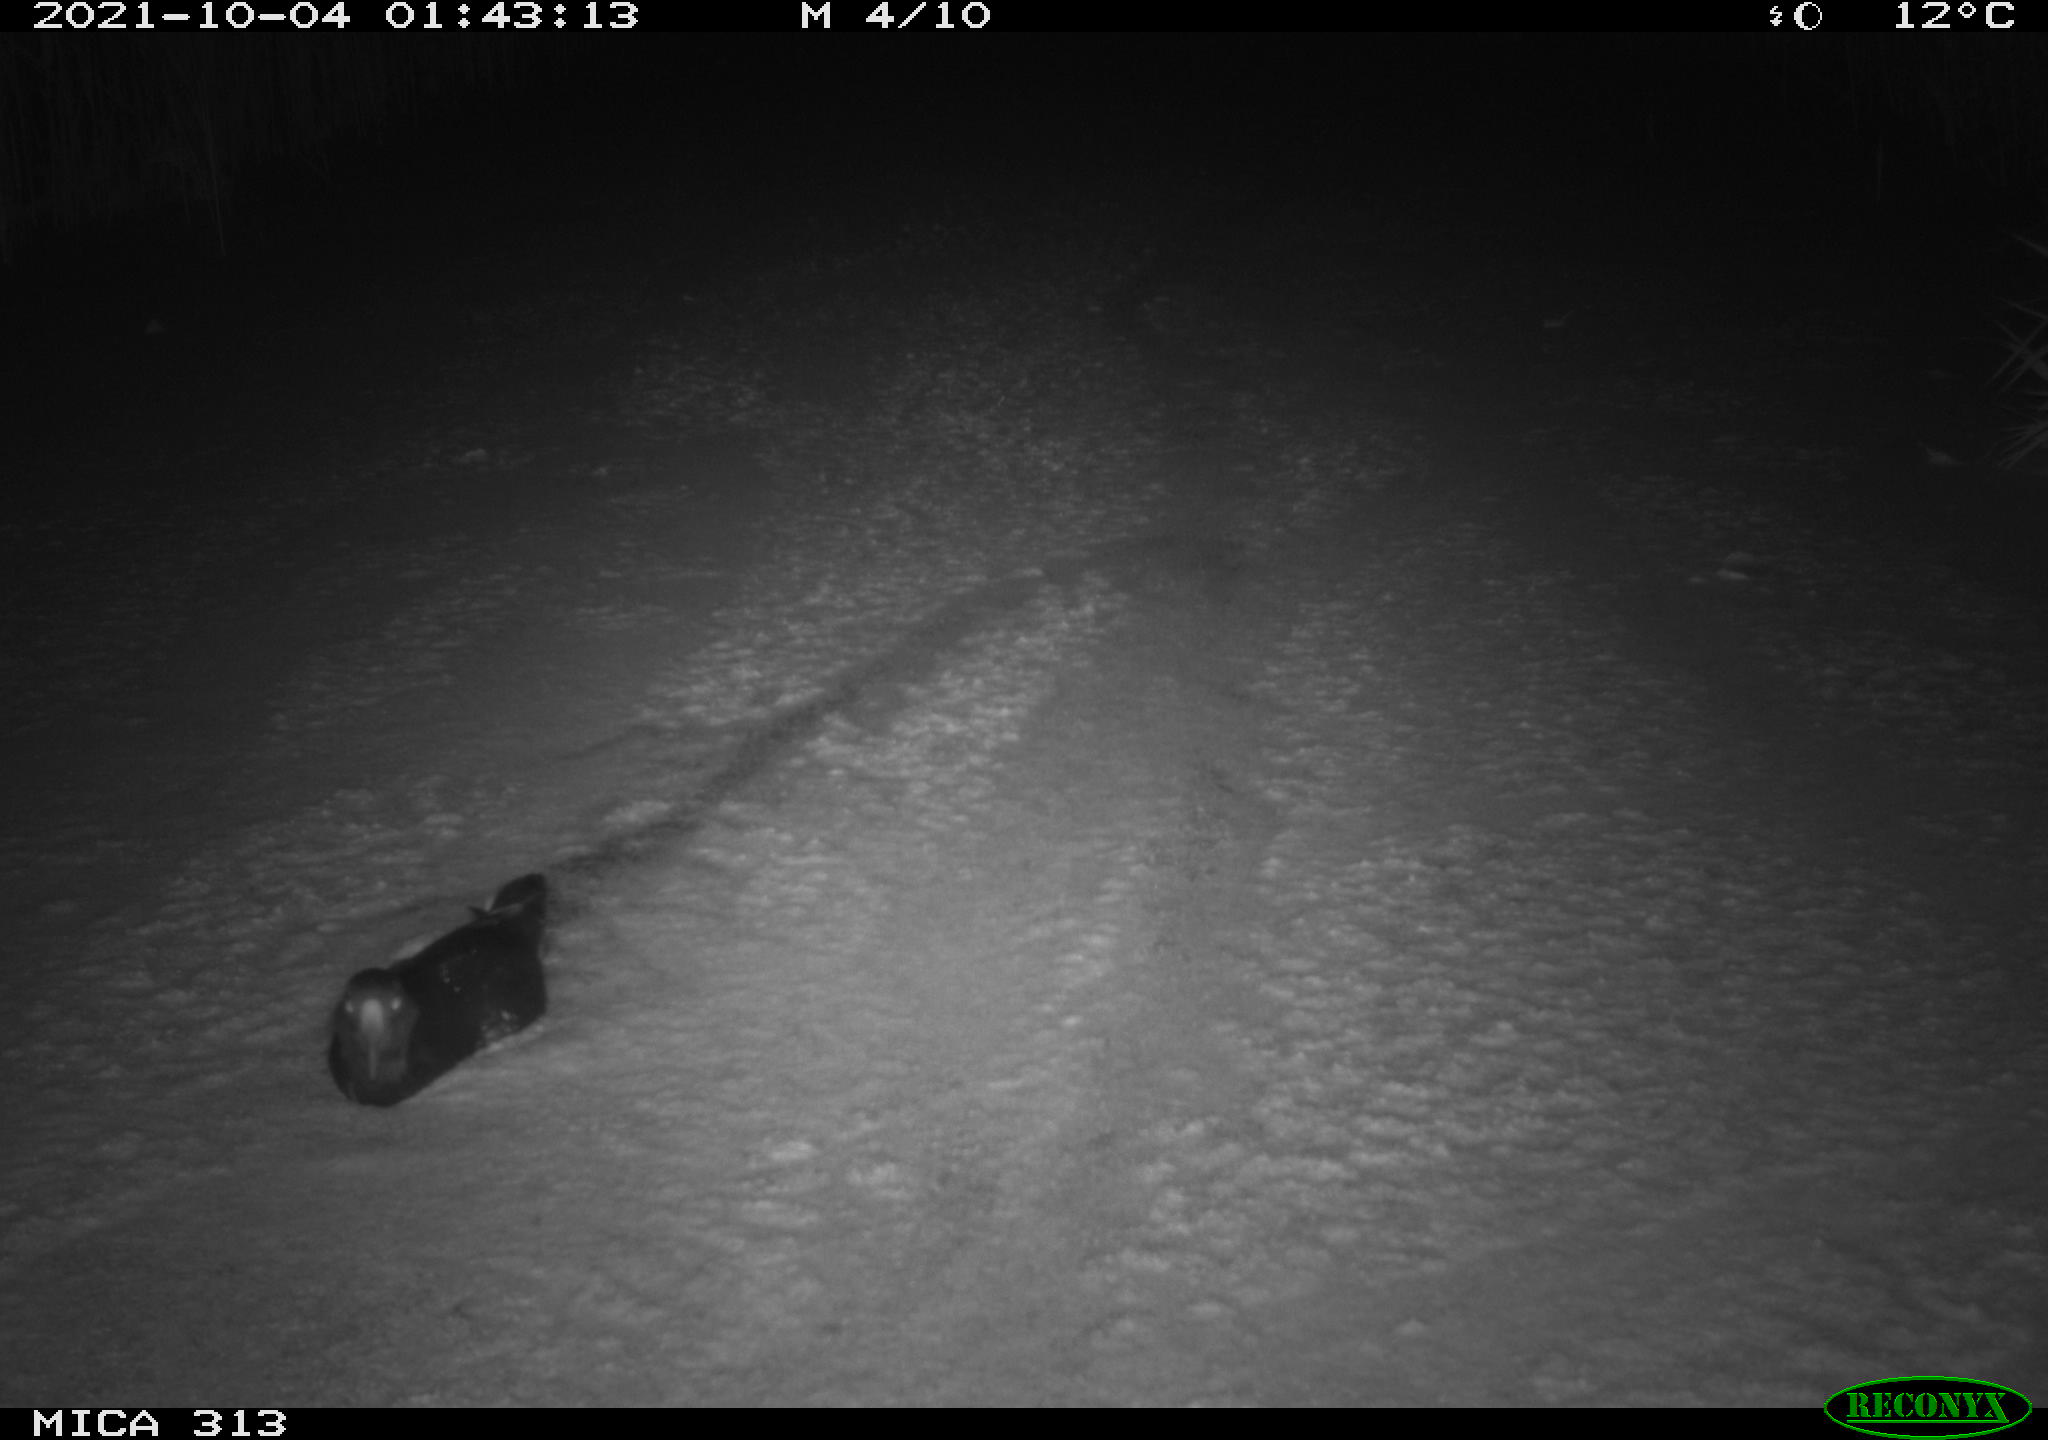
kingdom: Animalia
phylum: Chordata
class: Aves
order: Gruiformes
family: Rallidae
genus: Fulica
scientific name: Fulica atra
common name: Eurasian coot
